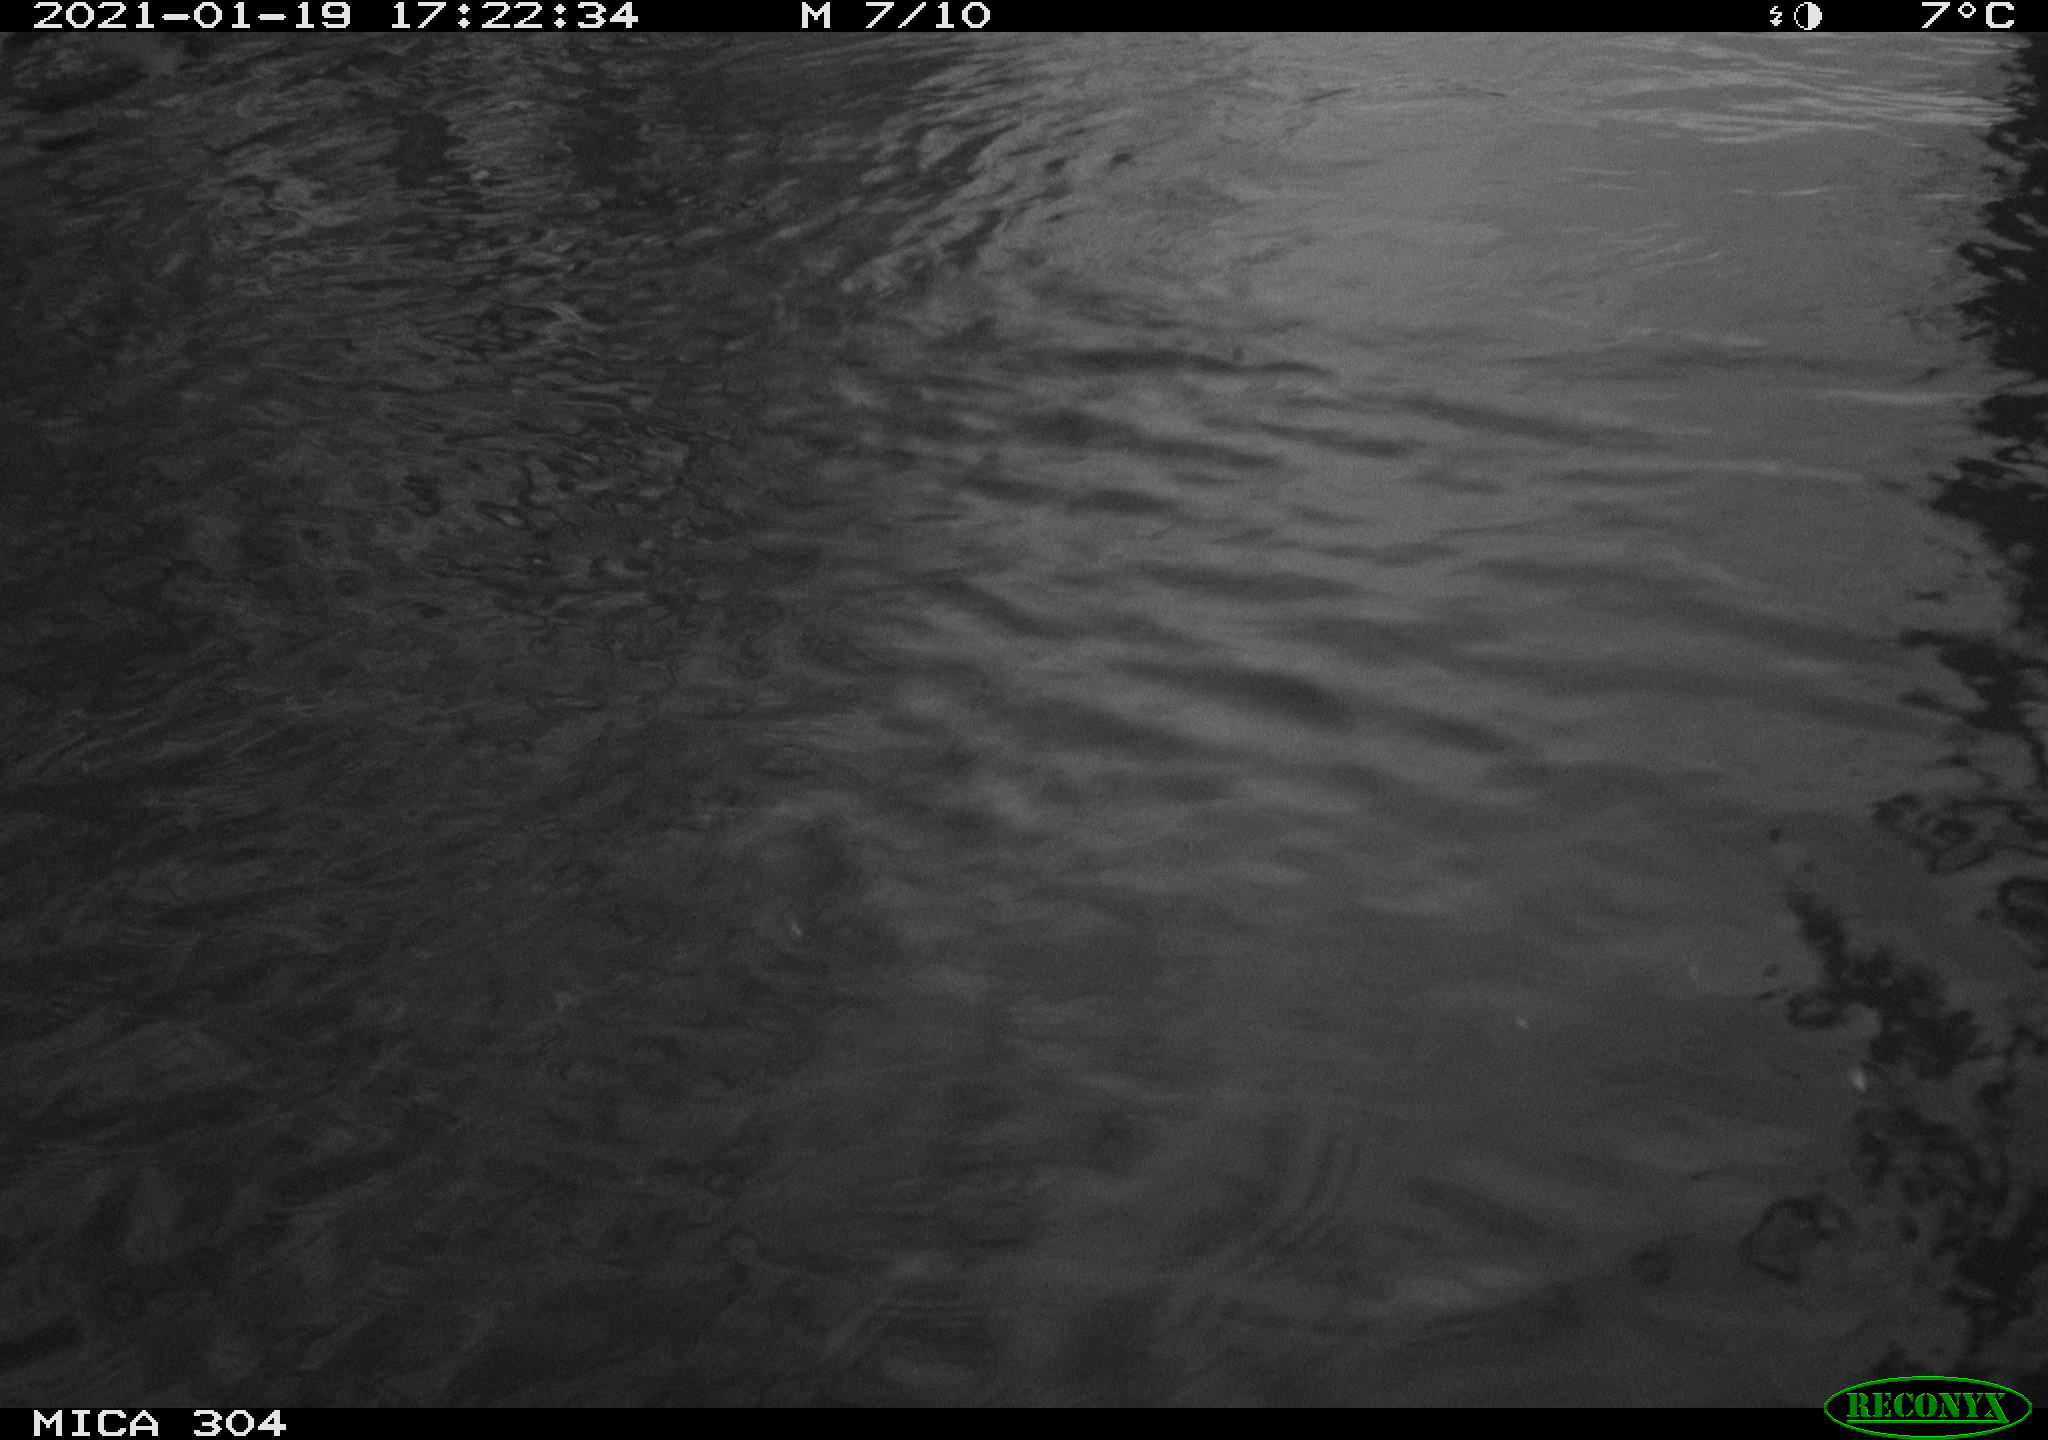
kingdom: Animalia
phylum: Chordata
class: Aves
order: Gruiformes
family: Rallidae
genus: Gallinula
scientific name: Gallinula chloropus
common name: Common moorhen
